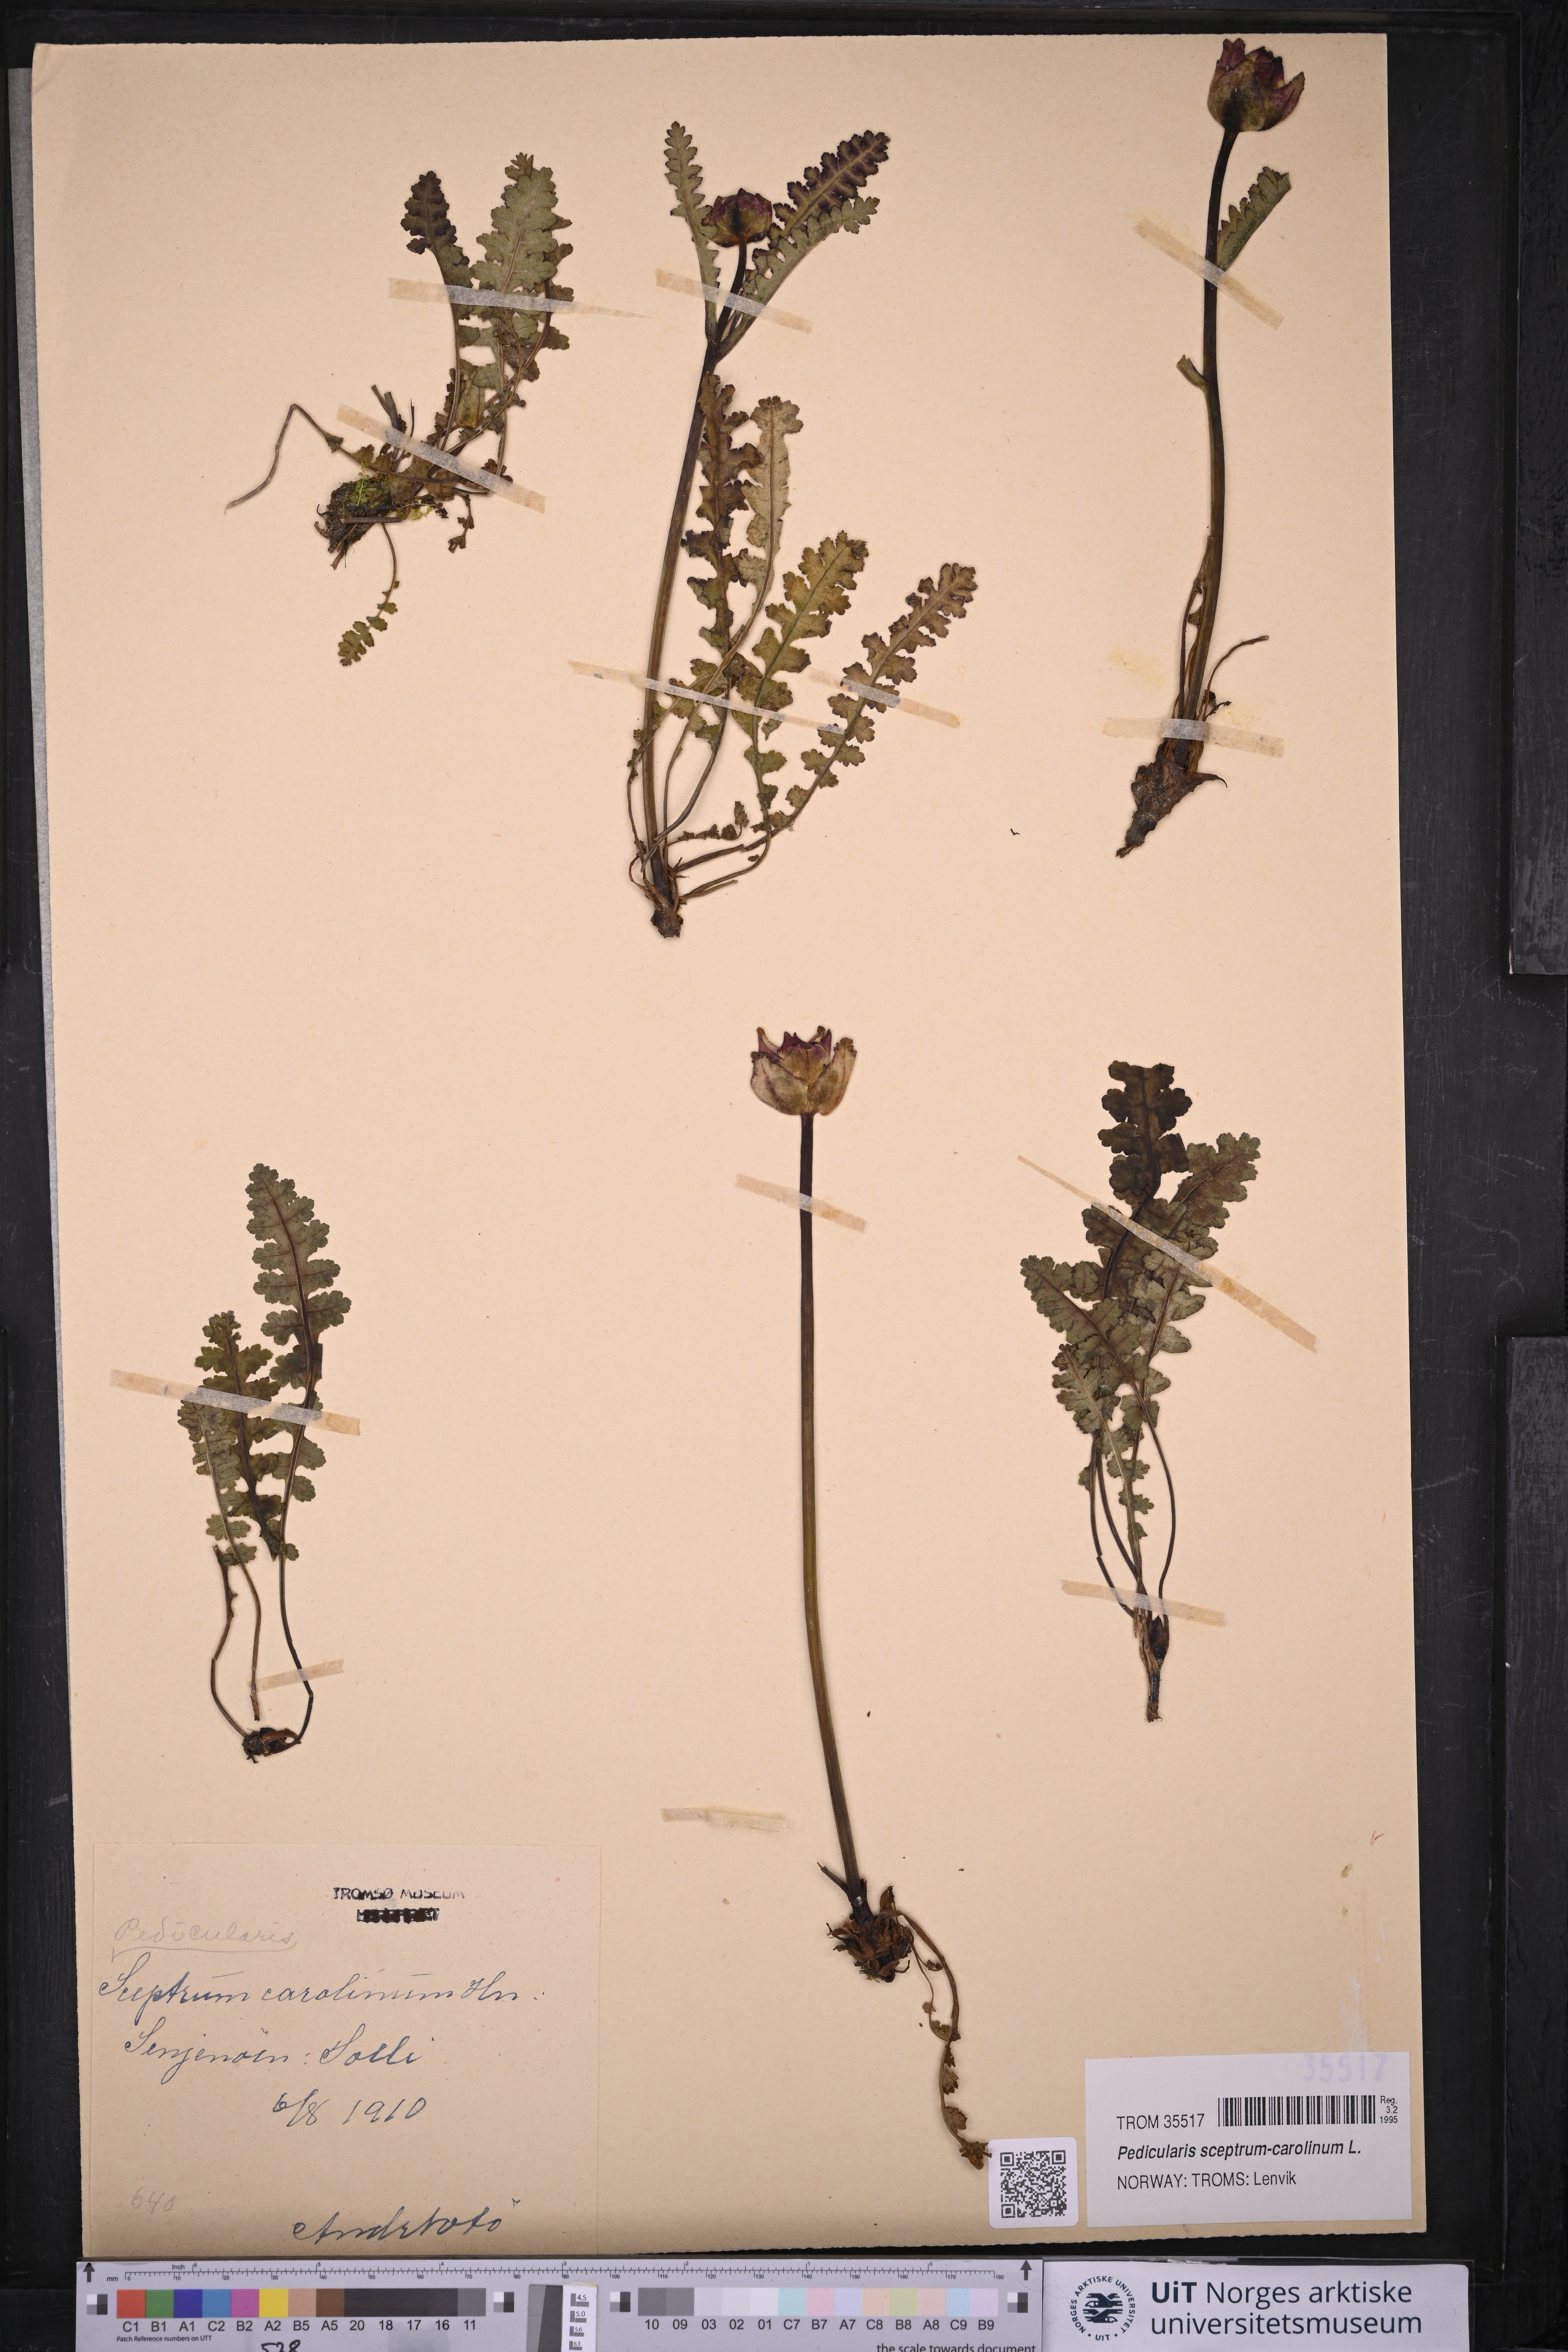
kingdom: Plantae
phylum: Tracheophyta
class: Magnoliopsida
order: Lamiales
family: Orobanchaceae
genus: Pedicularis
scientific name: Pedicularis sceptrum-carolinum
